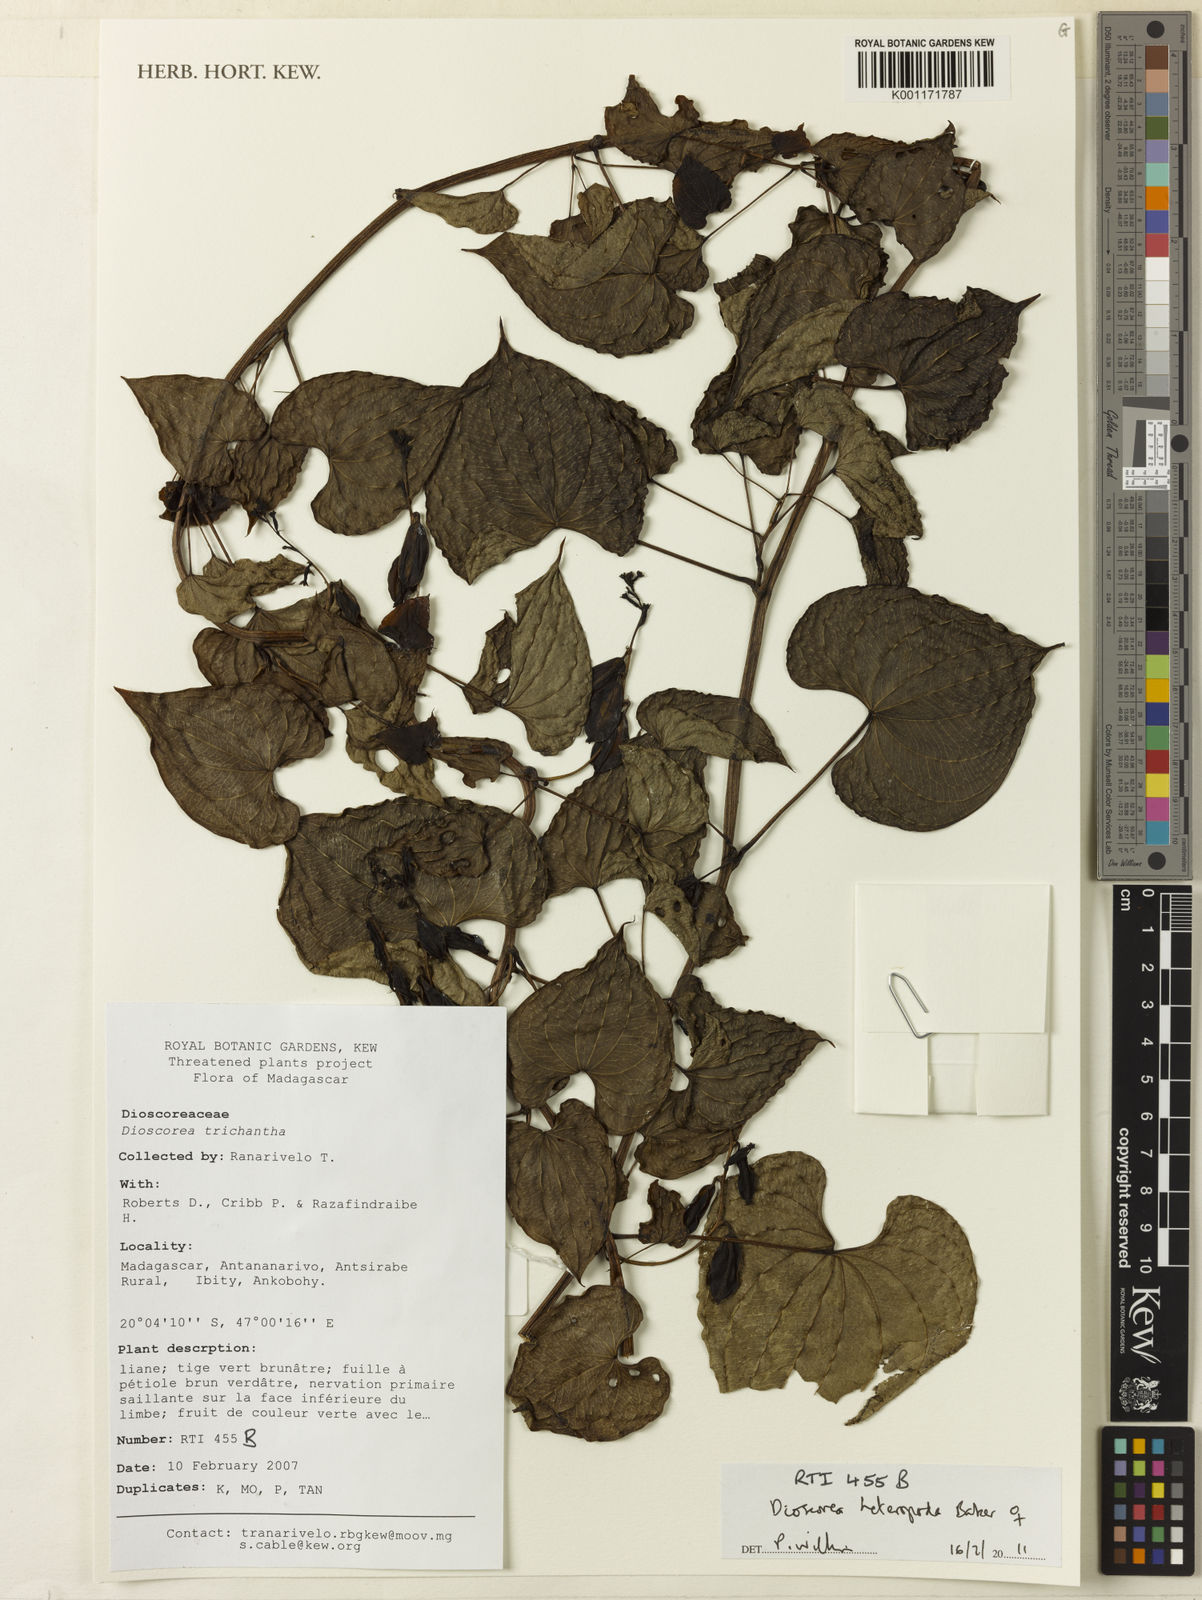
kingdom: Plantae
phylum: Tracheophyta
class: Liliopsida
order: Dioscoreales
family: Dioscoreaceae
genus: Dioscorea
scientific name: Dioscorea heteropoda
